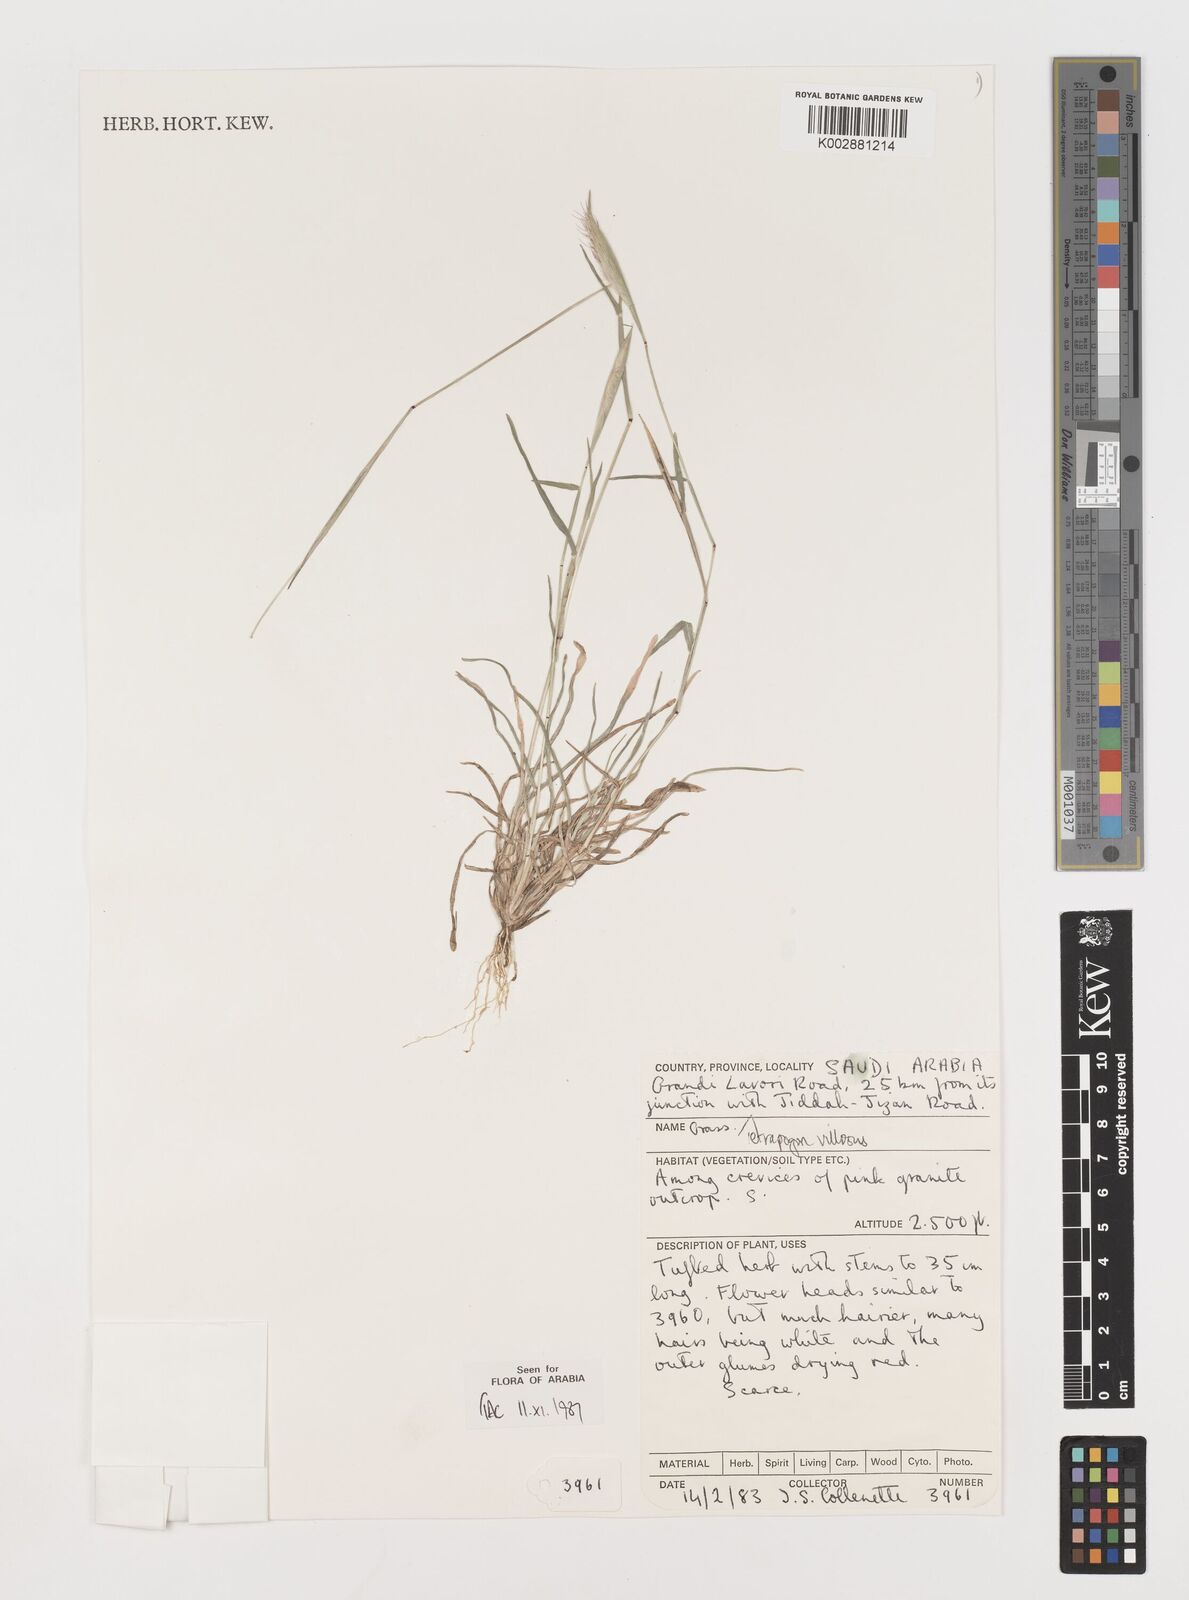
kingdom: Plantae
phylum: Tracheophyta
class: Liliopsida
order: Poales
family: Poaceae
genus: Tetrapogon
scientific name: Tetrapogon villosus
